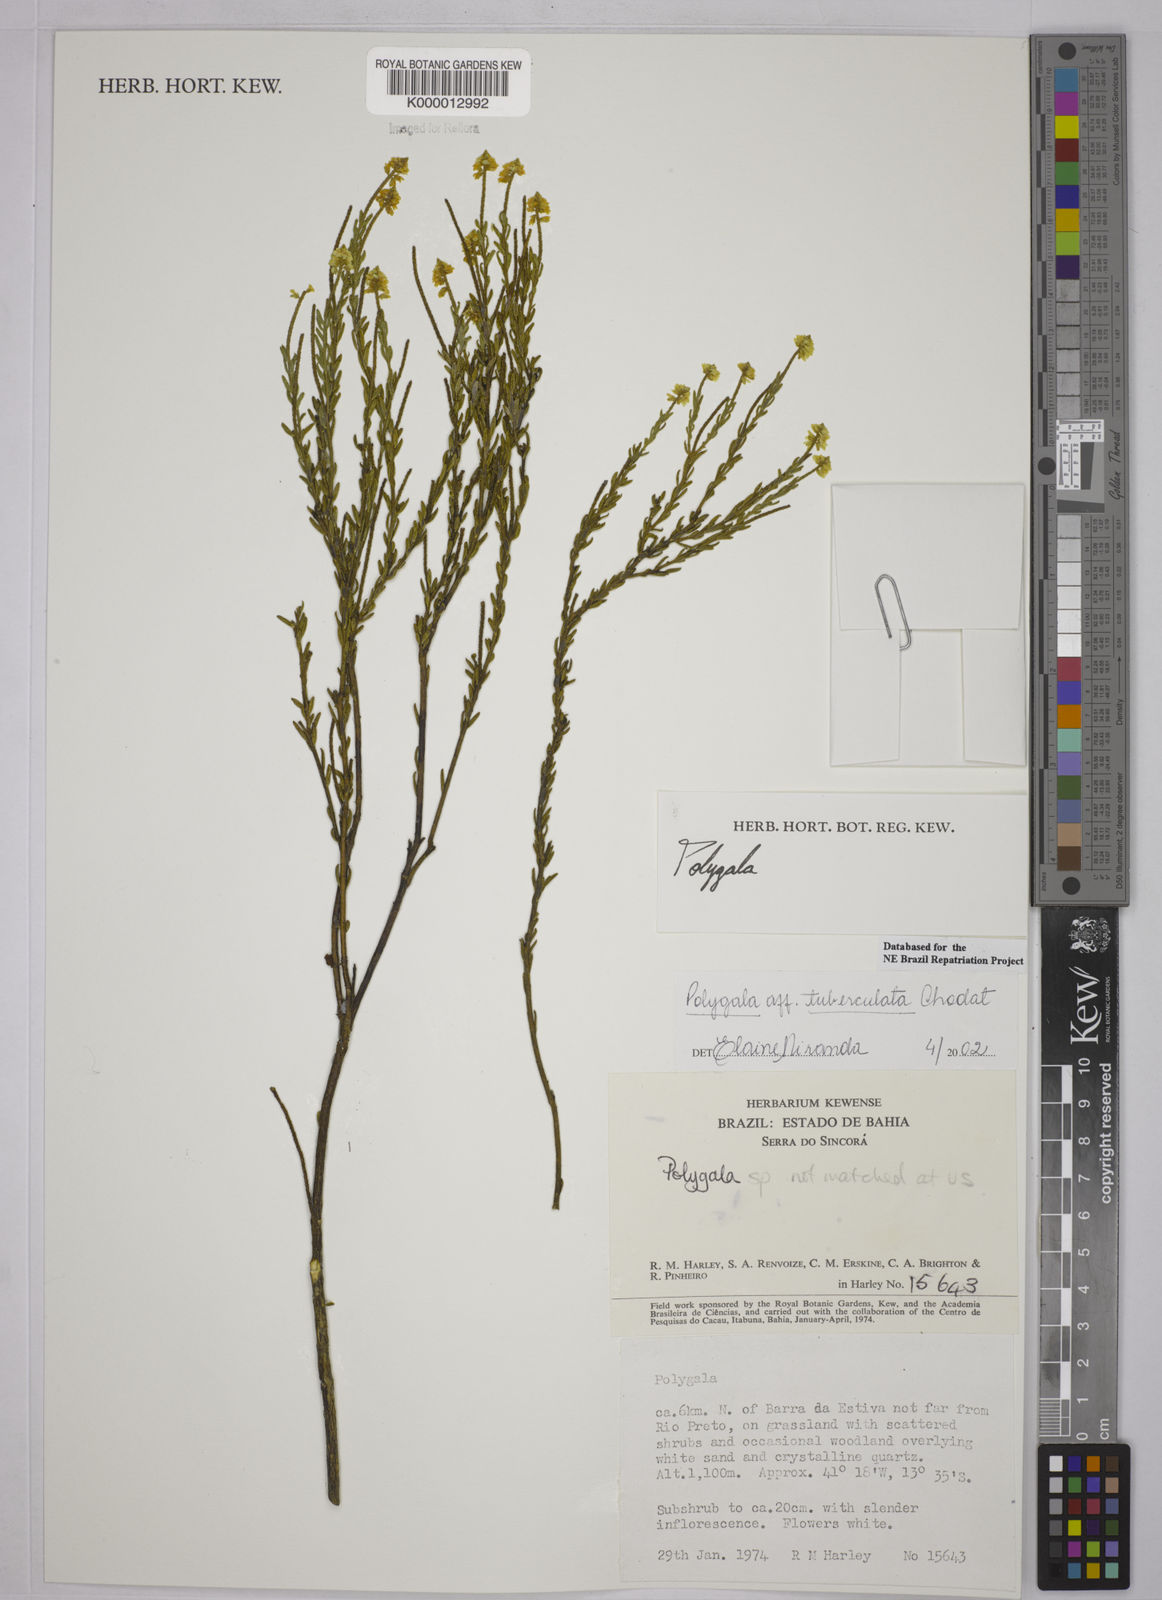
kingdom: Plantae
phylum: Tracheophyta
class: Magnoliopsida
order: Fabales
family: Polygalaceae
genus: Polygala
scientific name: Polygala tuberculata
